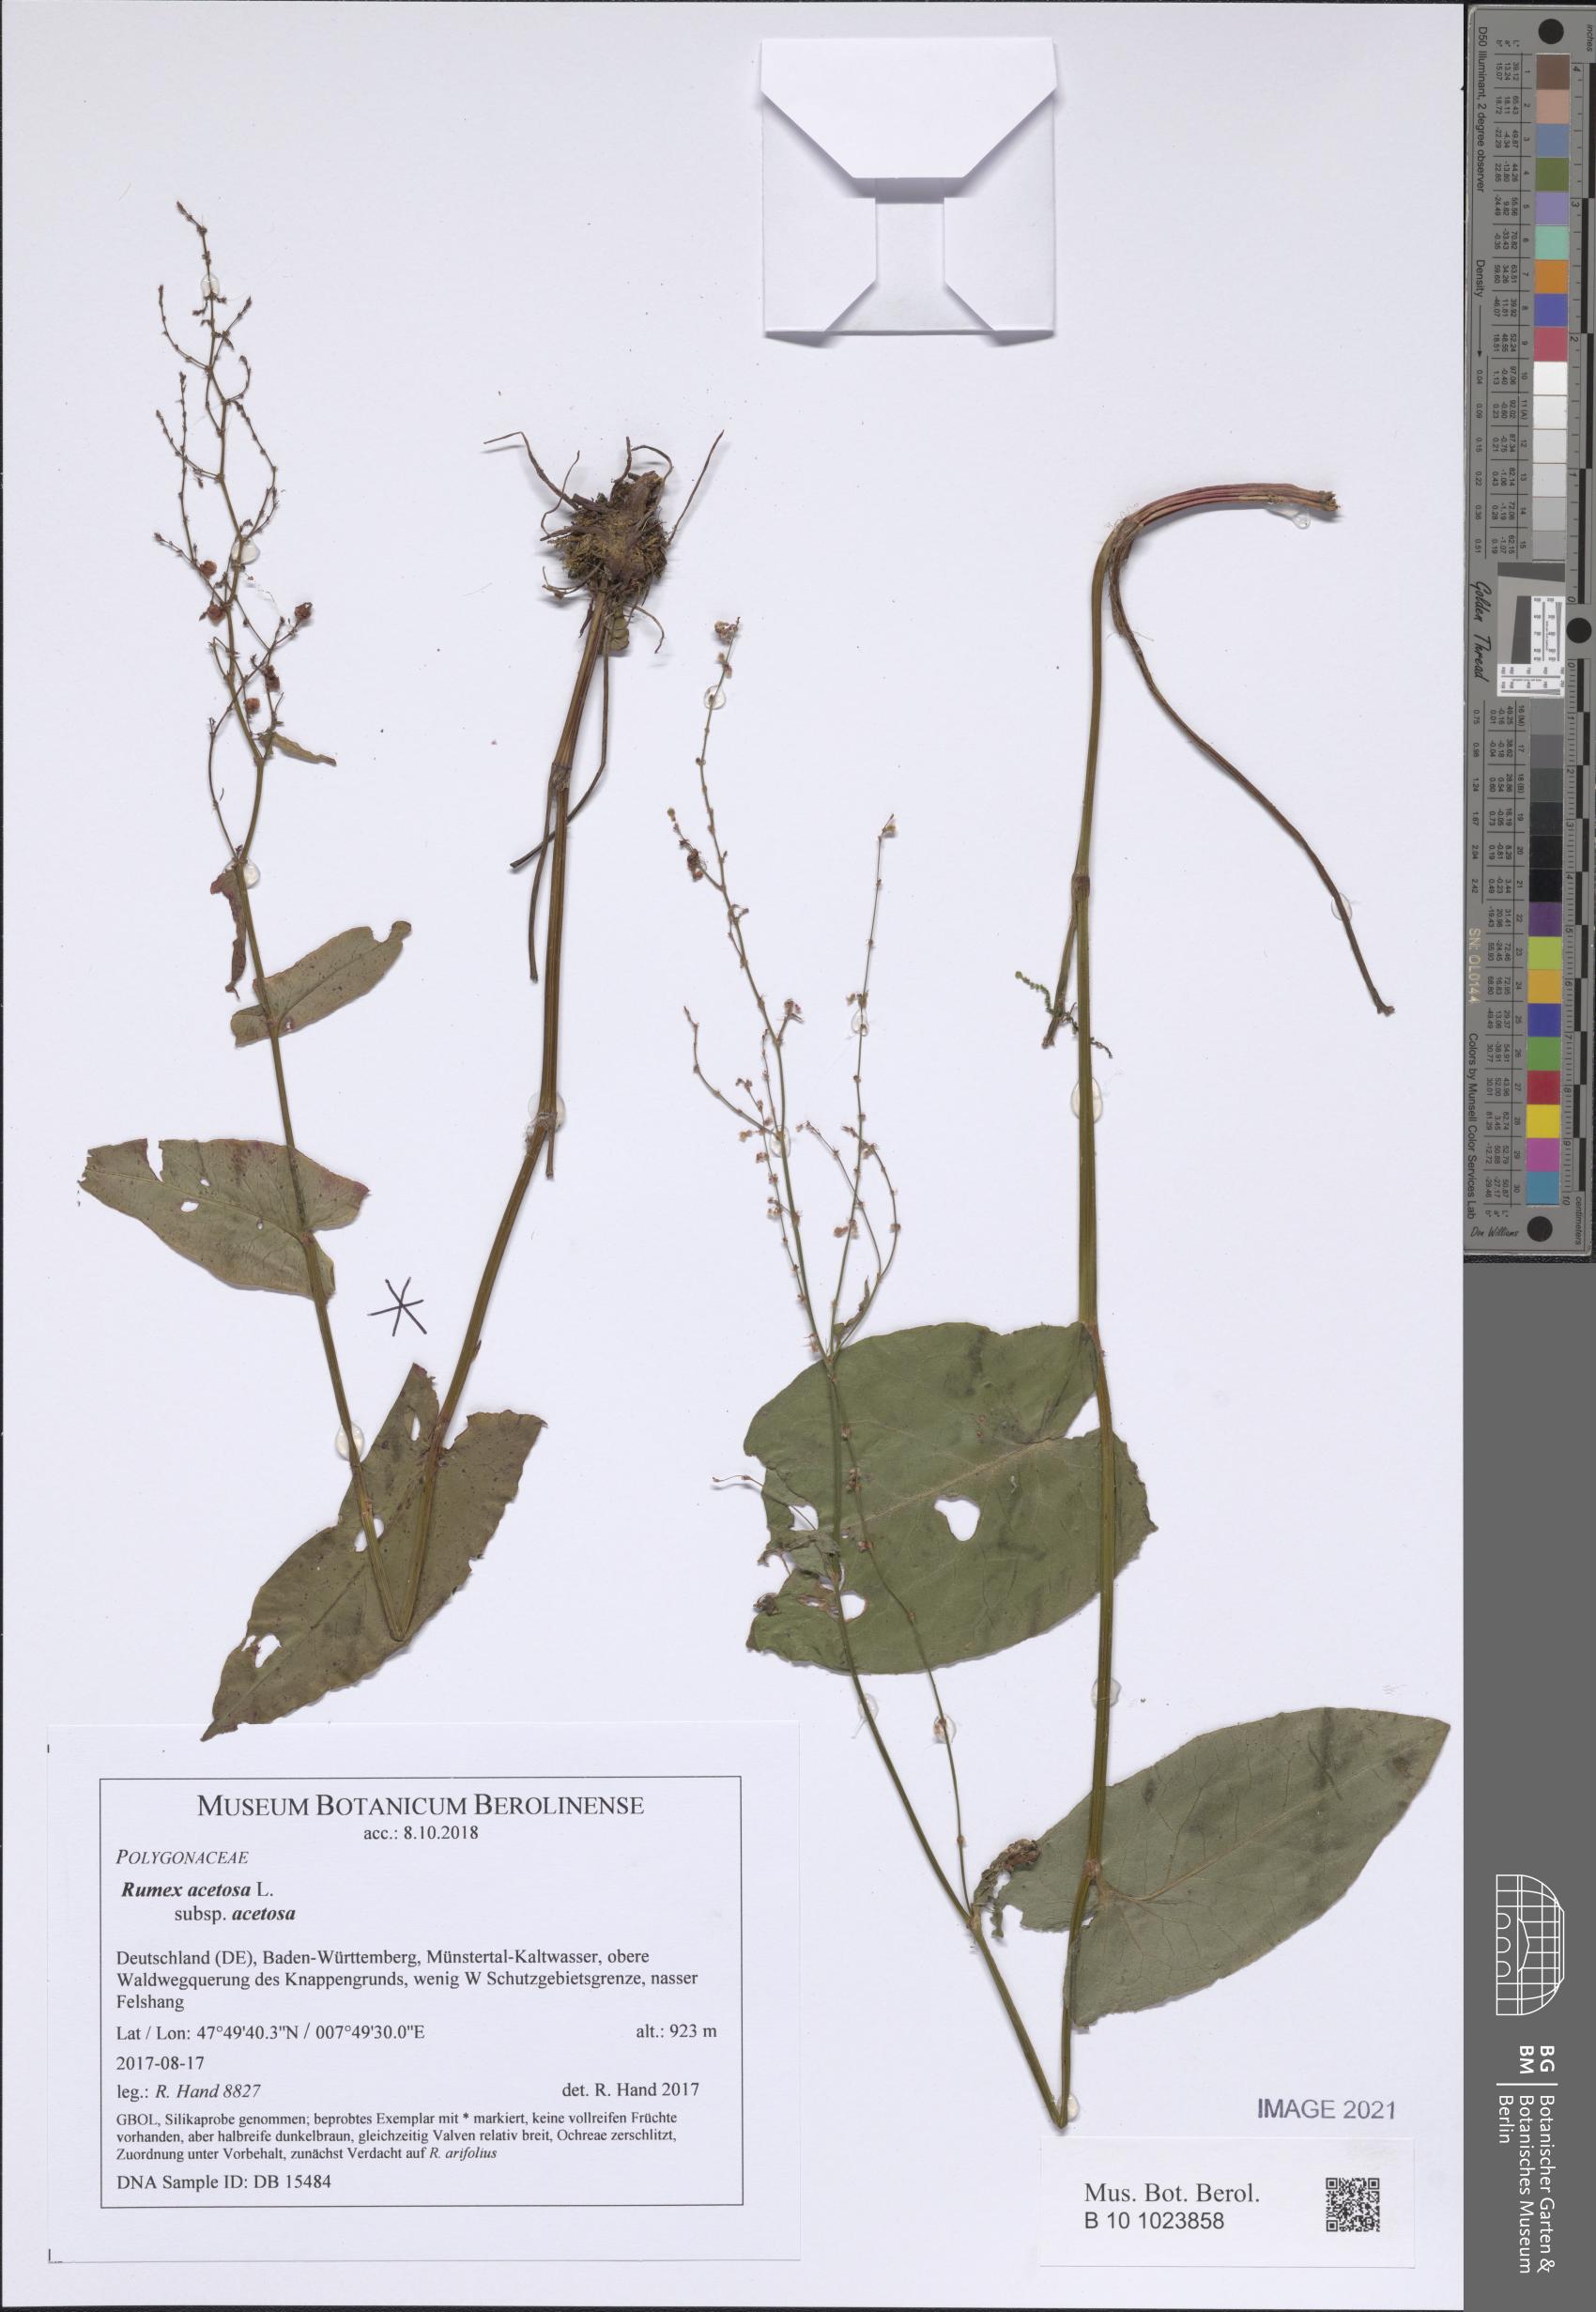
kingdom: Plantae
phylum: Tracheophyta
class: Magnoliopsida
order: Caryophyllales
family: Polygonaceae
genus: Rumex
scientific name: Rumex acetosa
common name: Garden sorrel
